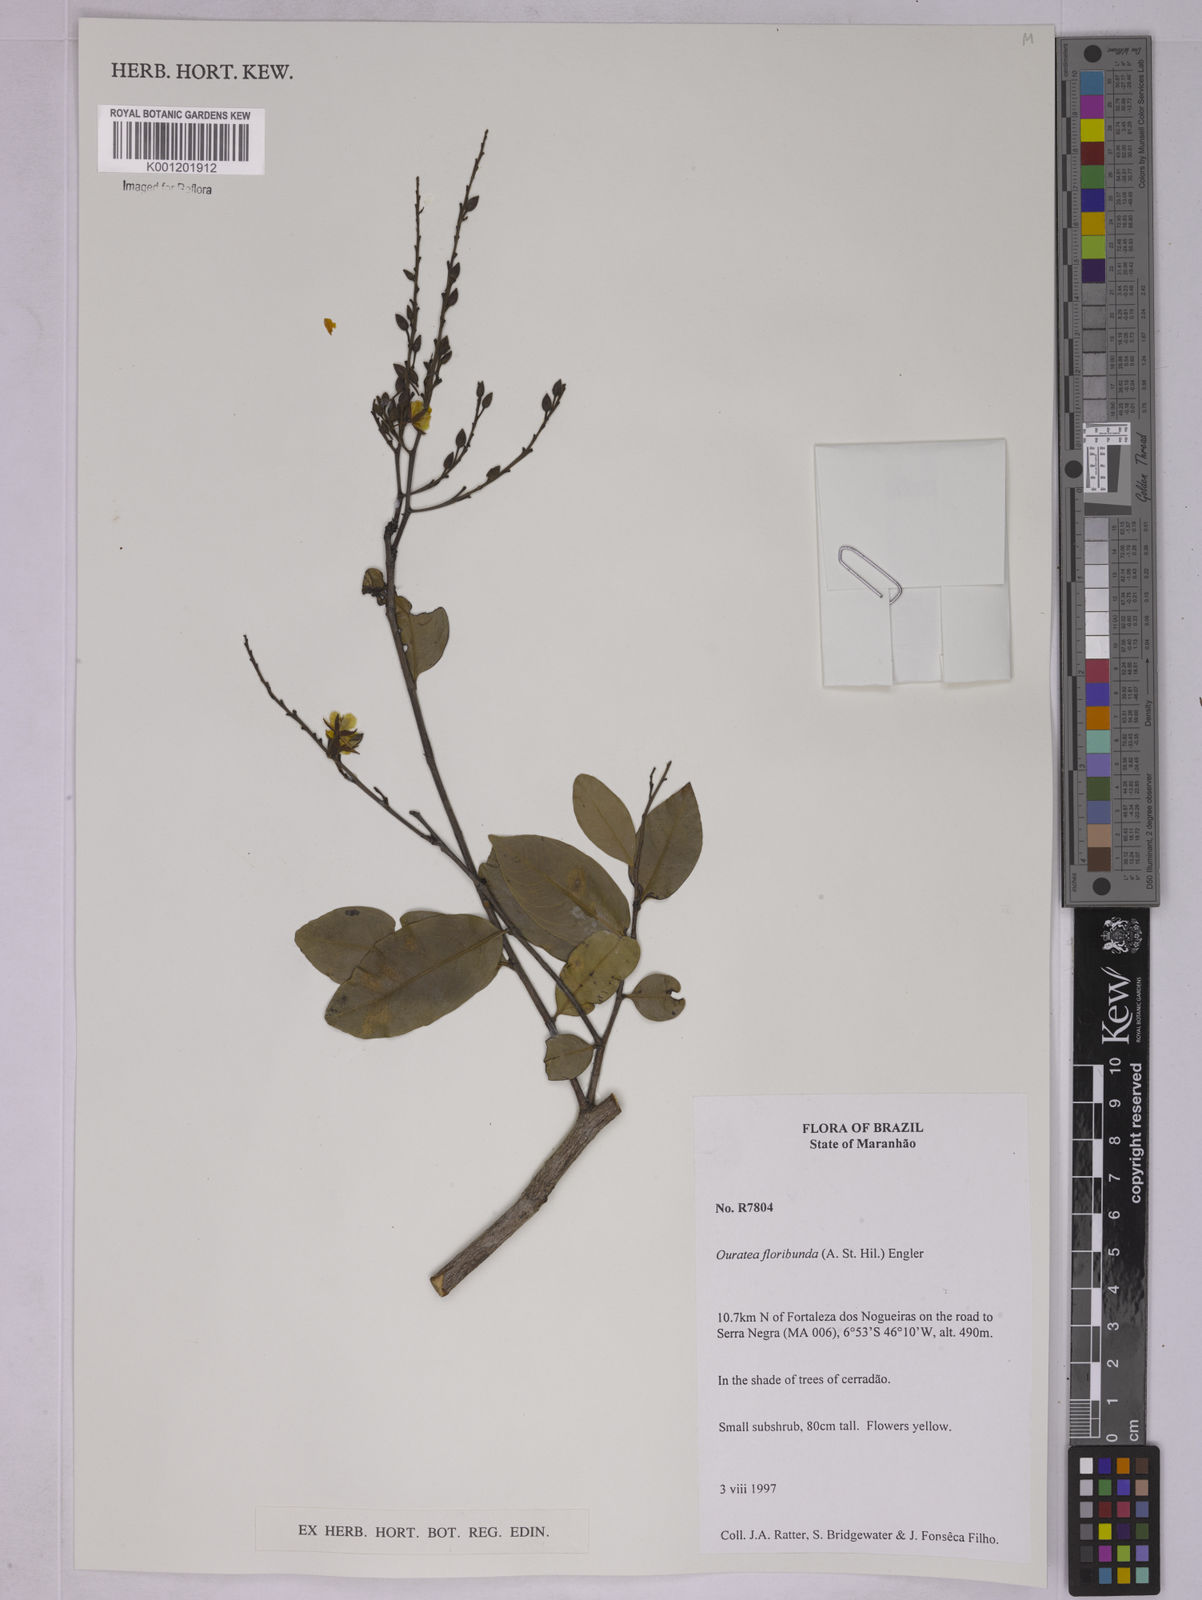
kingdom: Plantae
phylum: Tracheophyta
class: Magnoliopsida
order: Malpighiales
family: Ochnaceae
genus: Ouratea
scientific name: Ouratea floribunda
